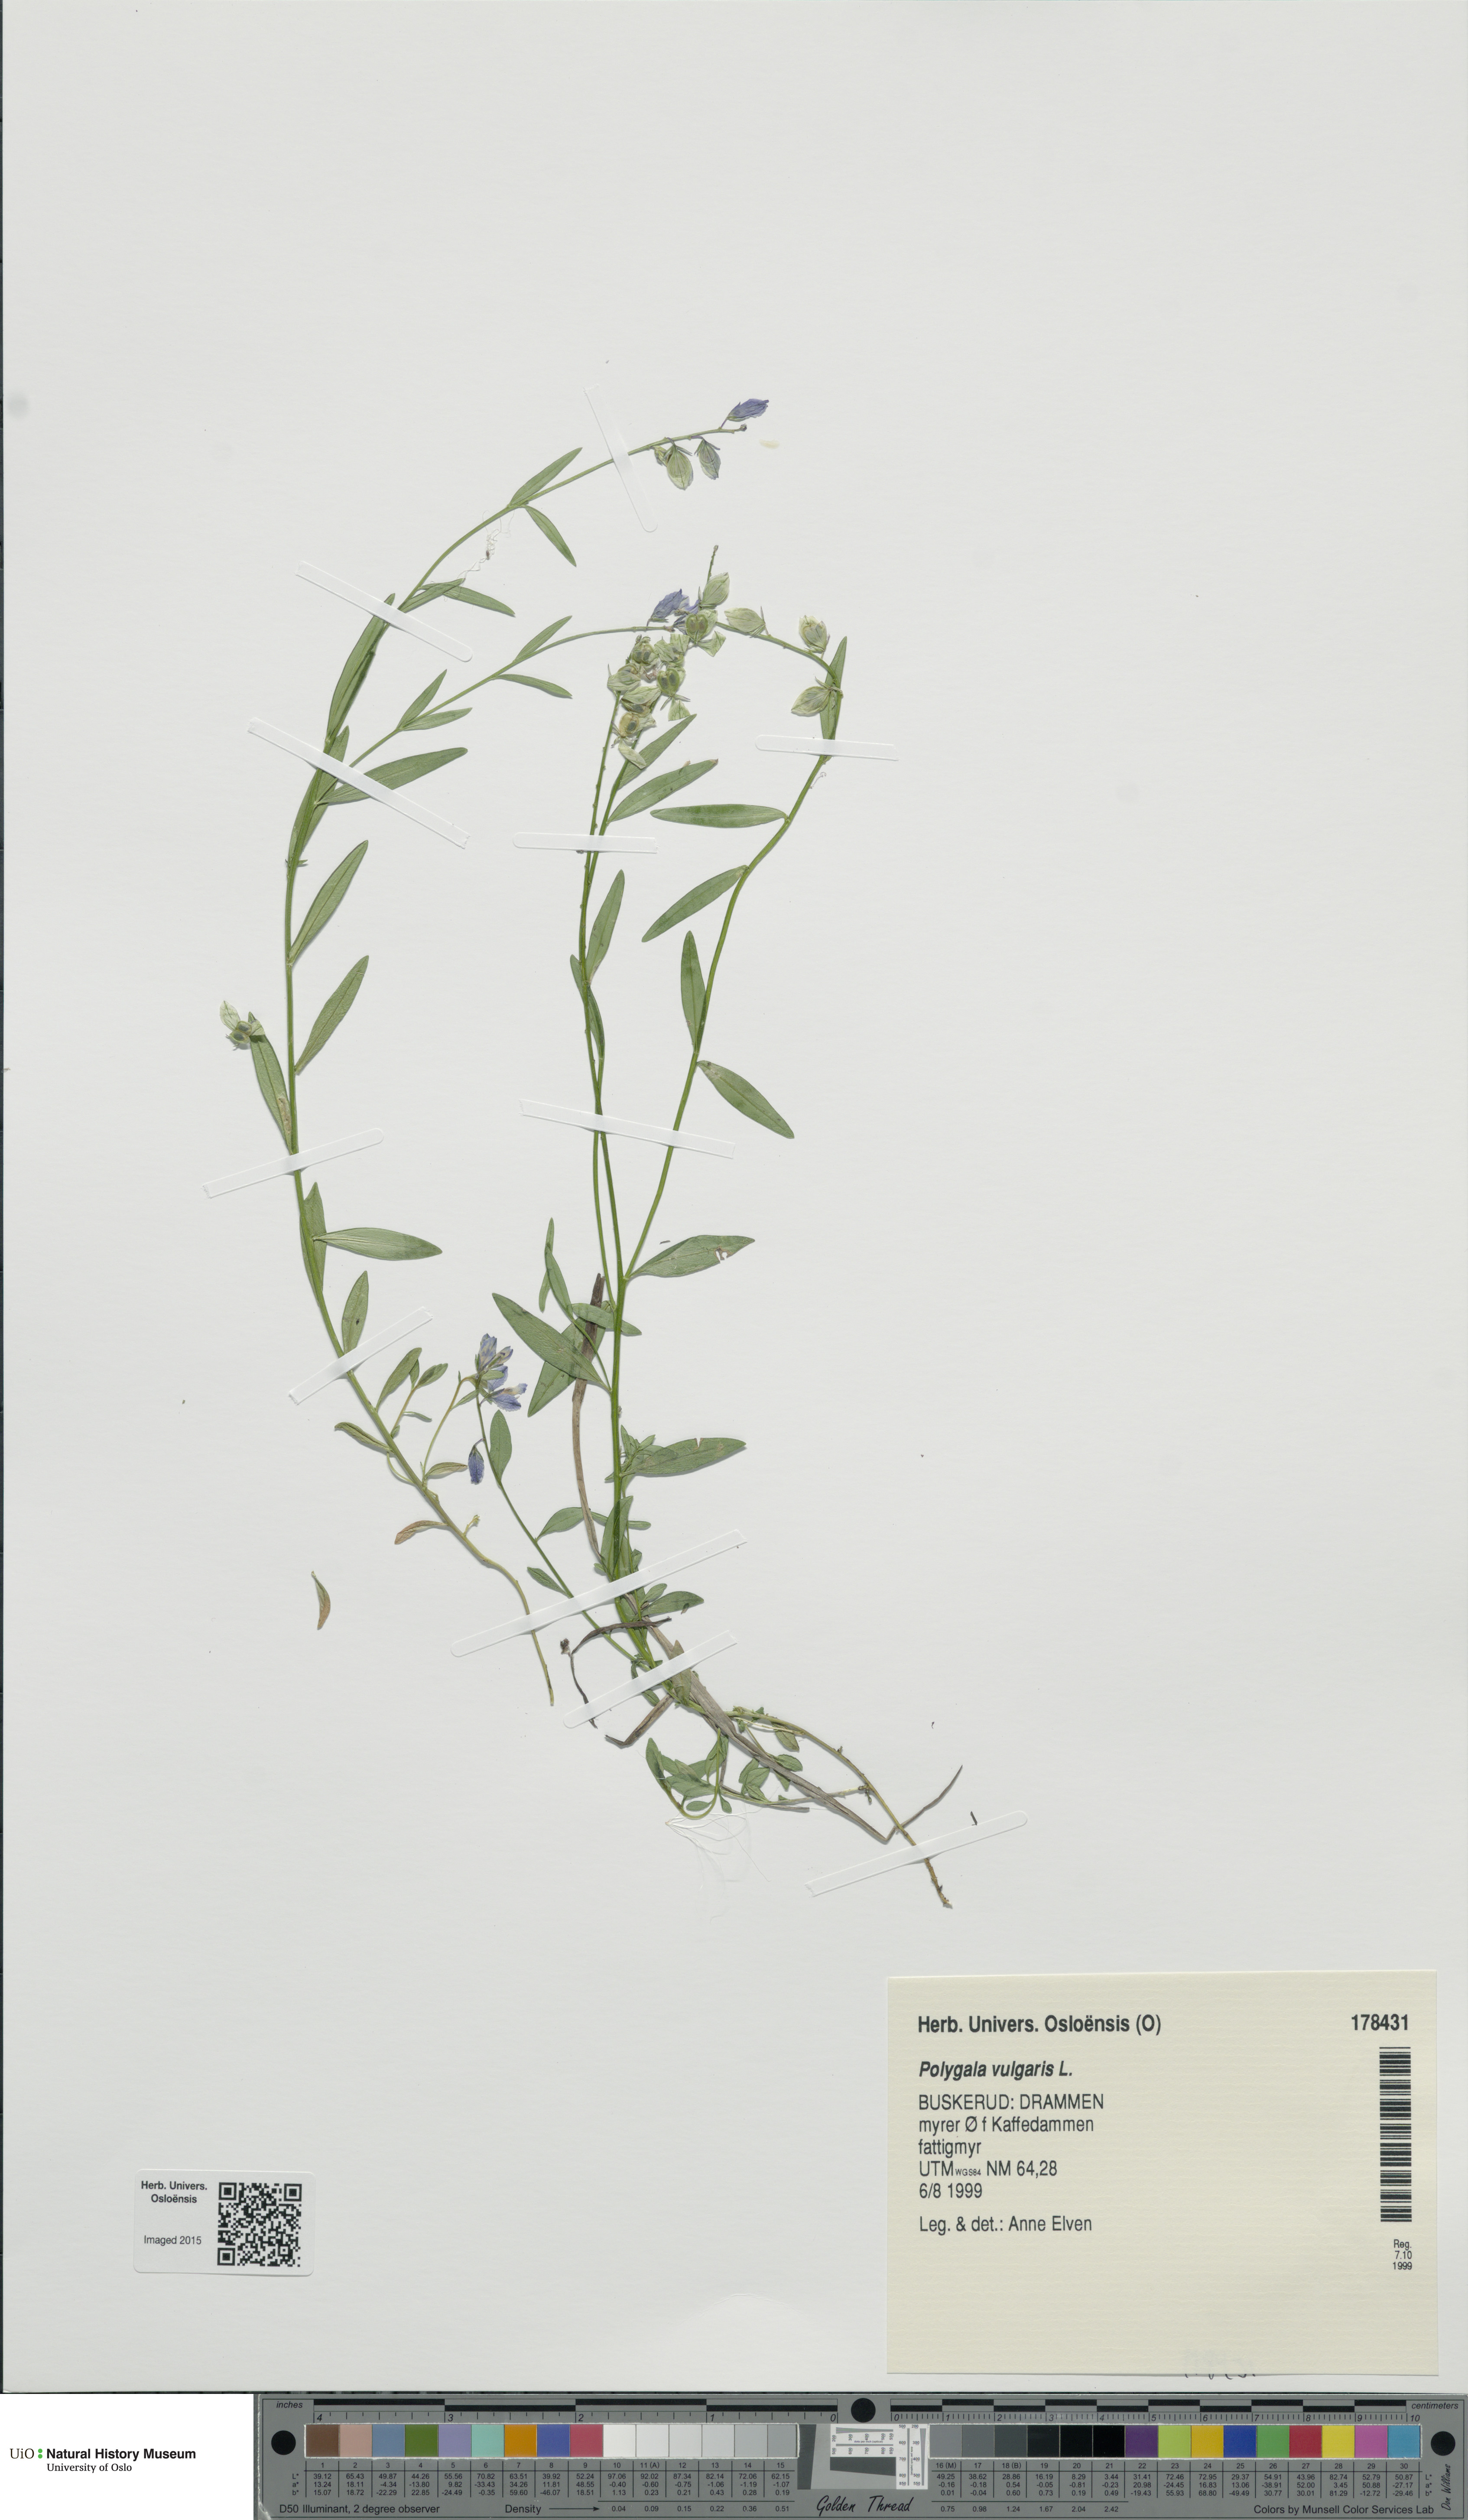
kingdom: Plantae
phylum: Tracheophyta
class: Magnoliopsida
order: Fabales
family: Polygalaceae
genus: Polygala
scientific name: Polygala vulgaris
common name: Common milkwort
